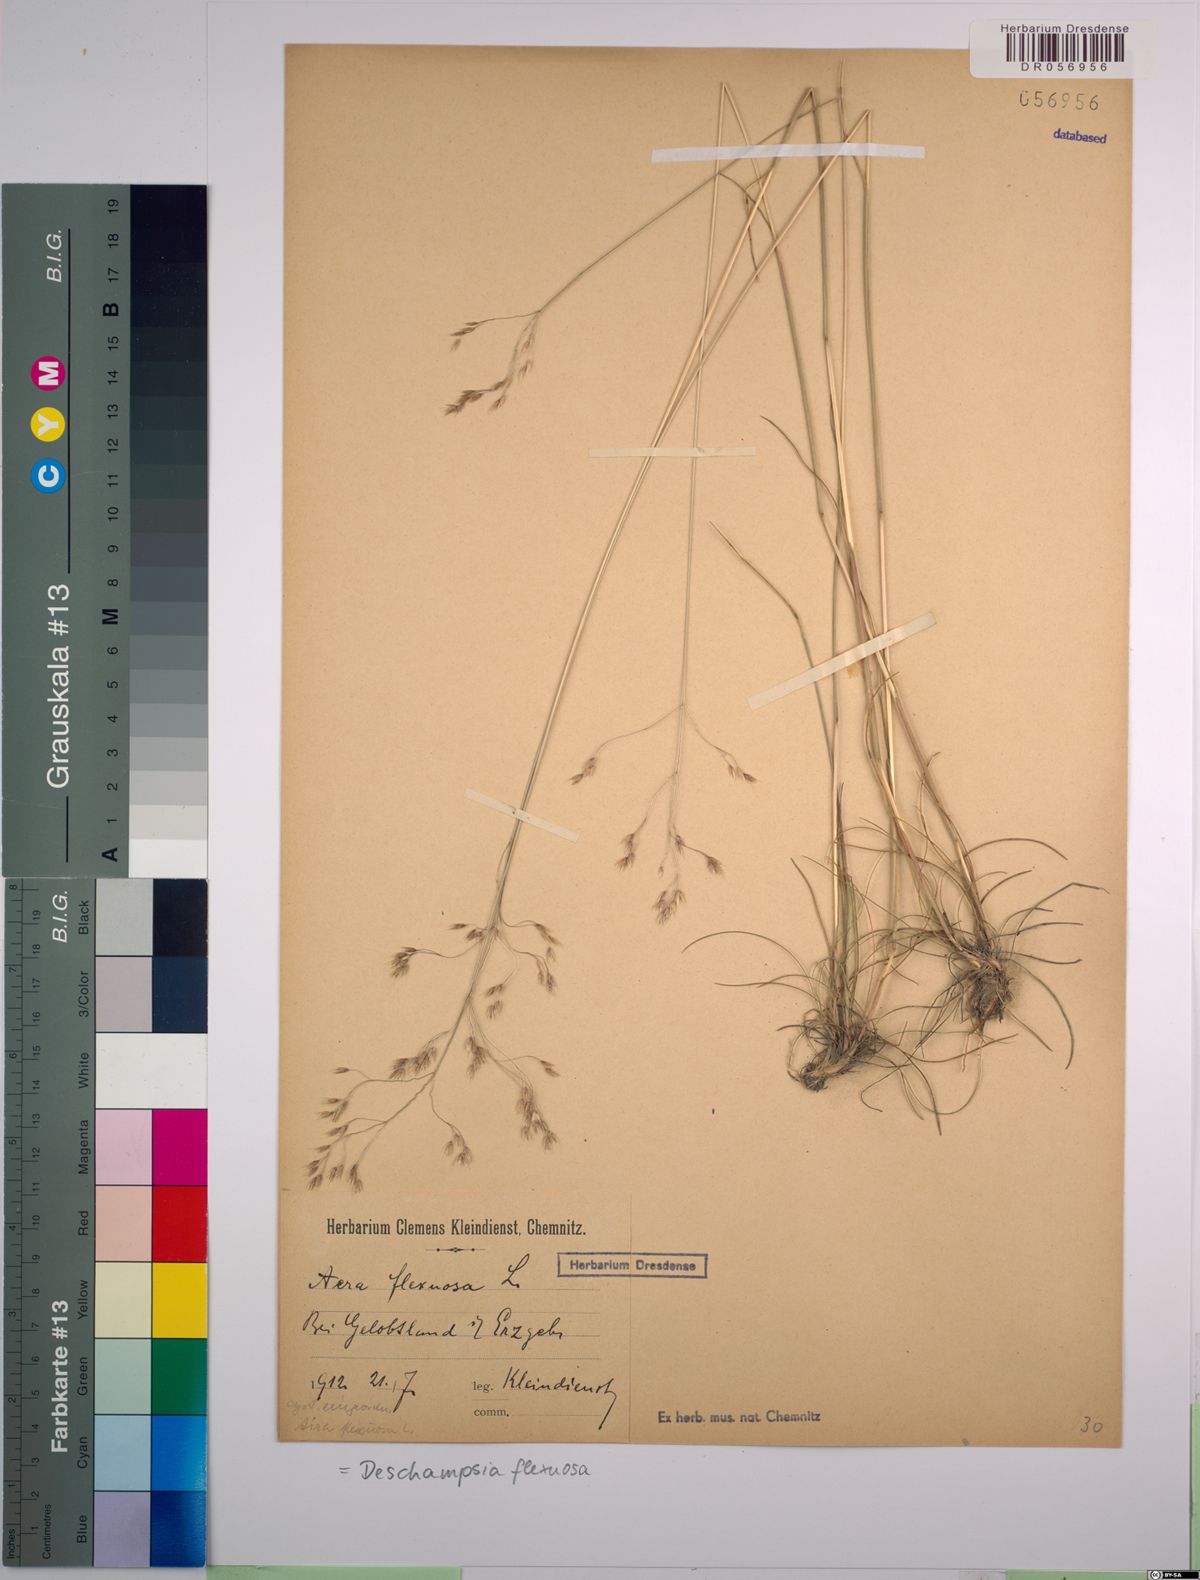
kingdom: Plantae
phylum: Tracheophyta
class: Liliopsida
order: Poales
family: Poaceae
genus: Avenella
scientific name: Avenella flexuosa
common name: Wavy hairgrass
